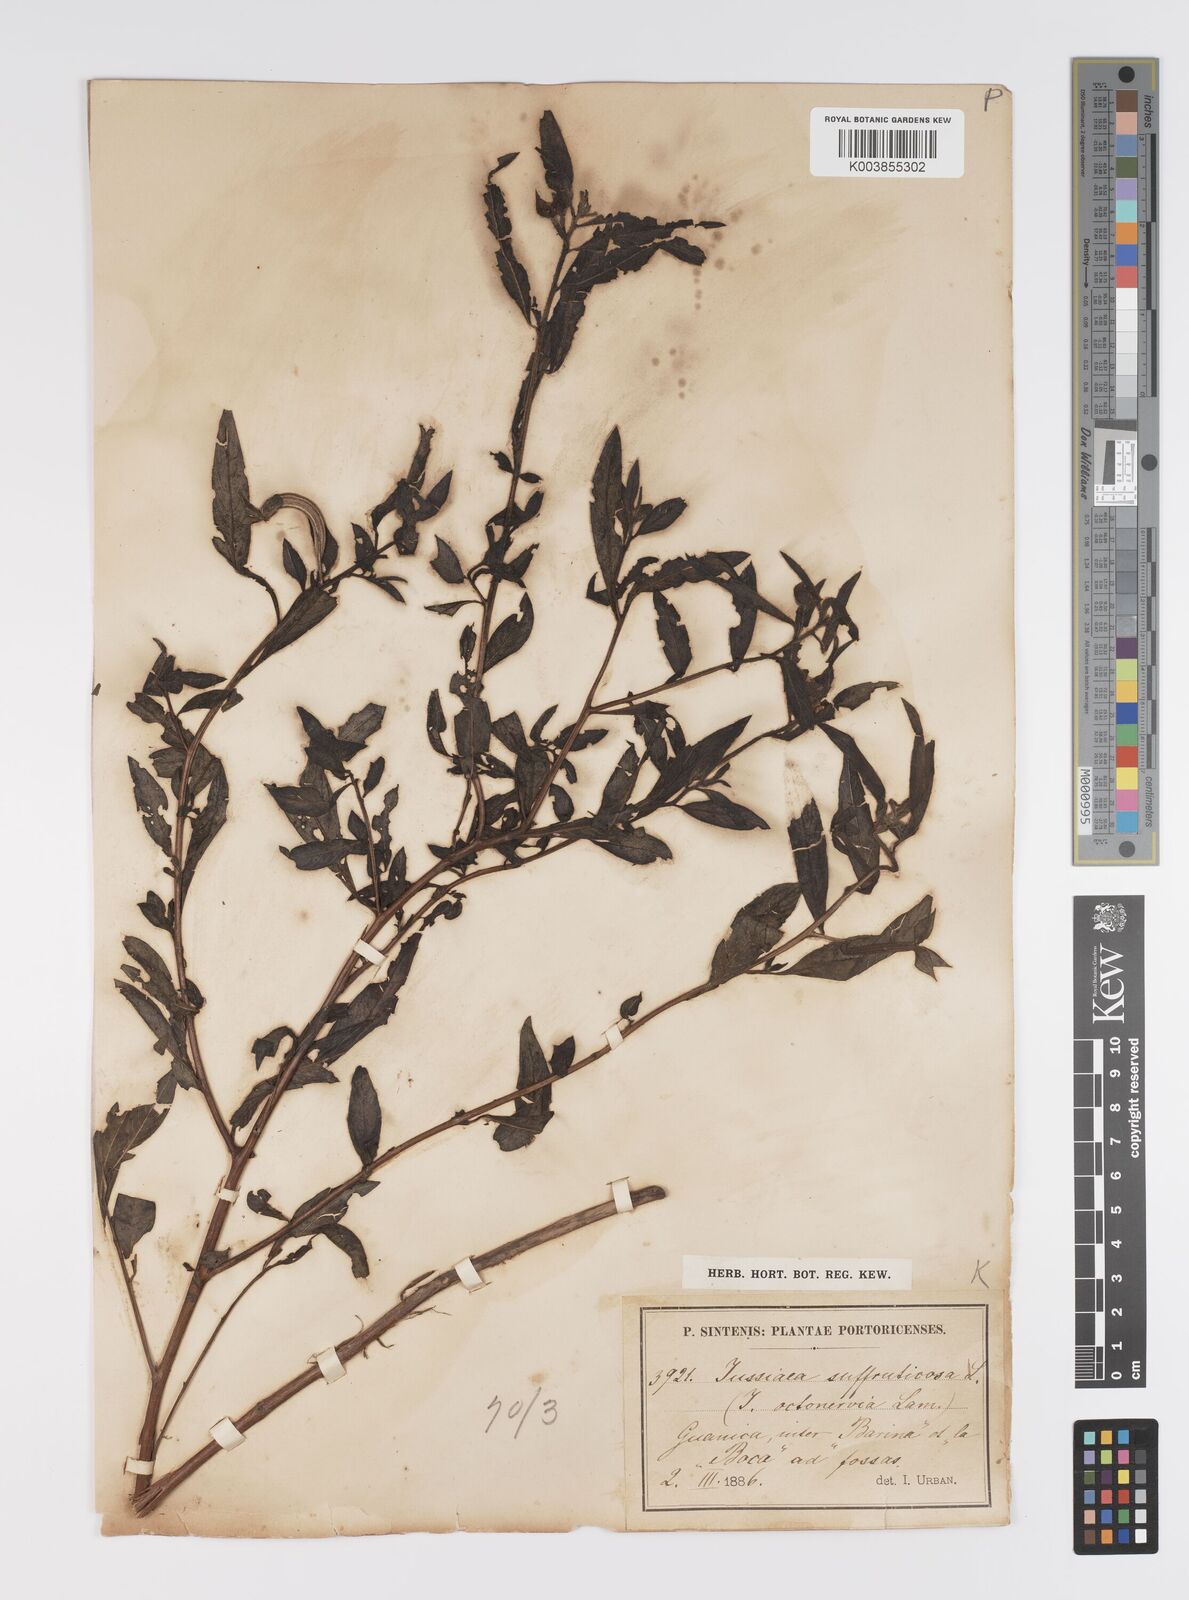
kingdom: Plantae
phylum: Tracheophyta
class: Magnoliopsida
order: Myrtales
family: Onagraceae
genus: Ludwigia
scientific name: Ludwigia
